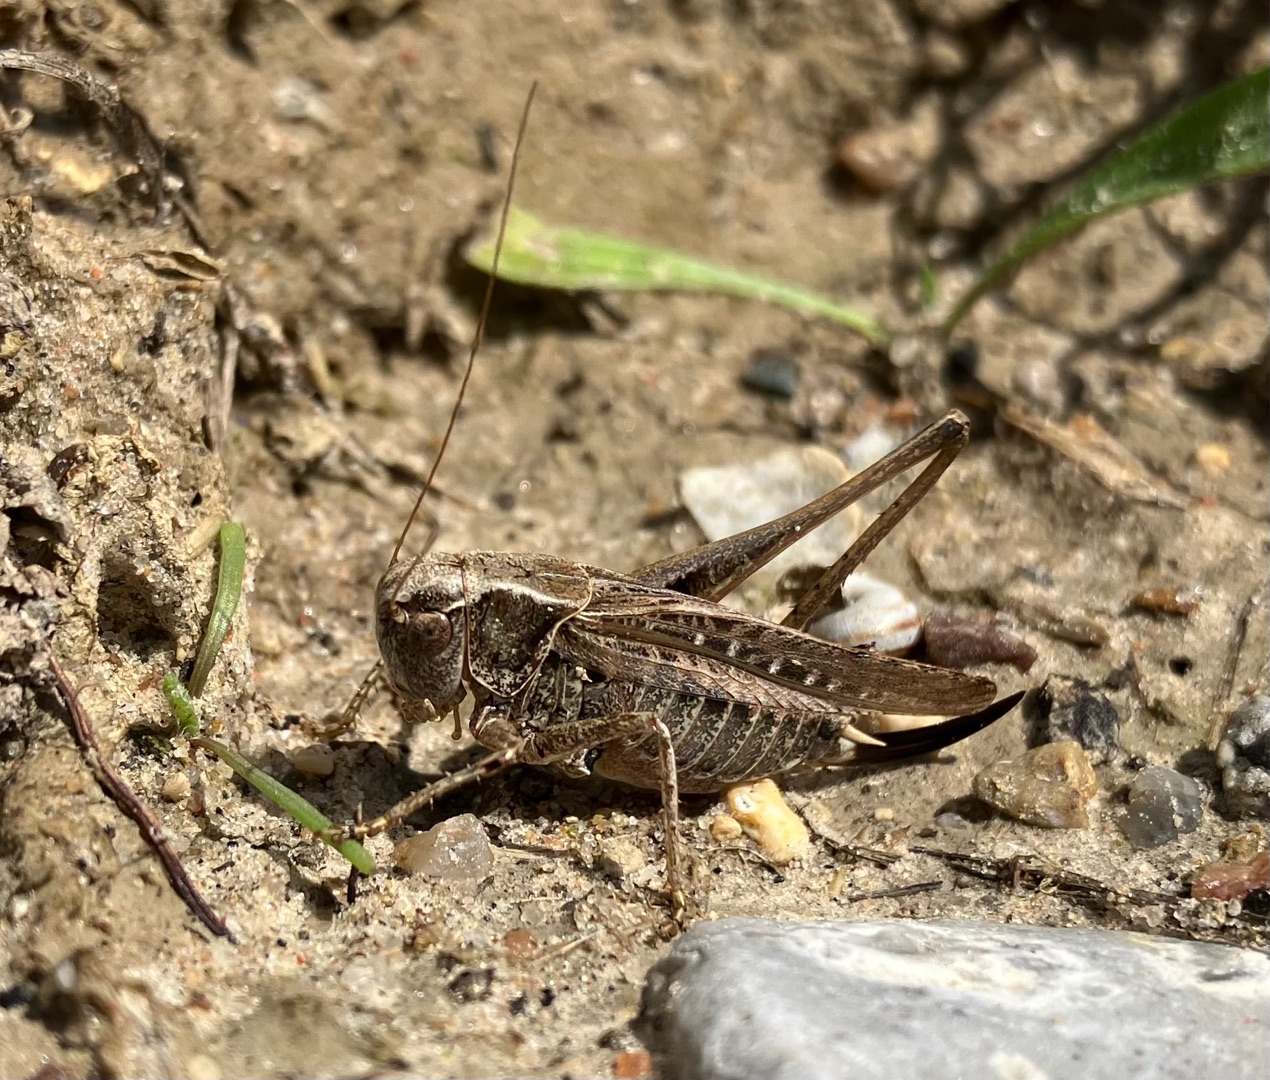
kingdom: Animalia
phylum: Arthropoda
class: Insecta
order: Orthoptera
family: Tettigoniidae
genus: Platycleis
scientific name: Platycleis albopunctata
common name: Sandgræshoppe
